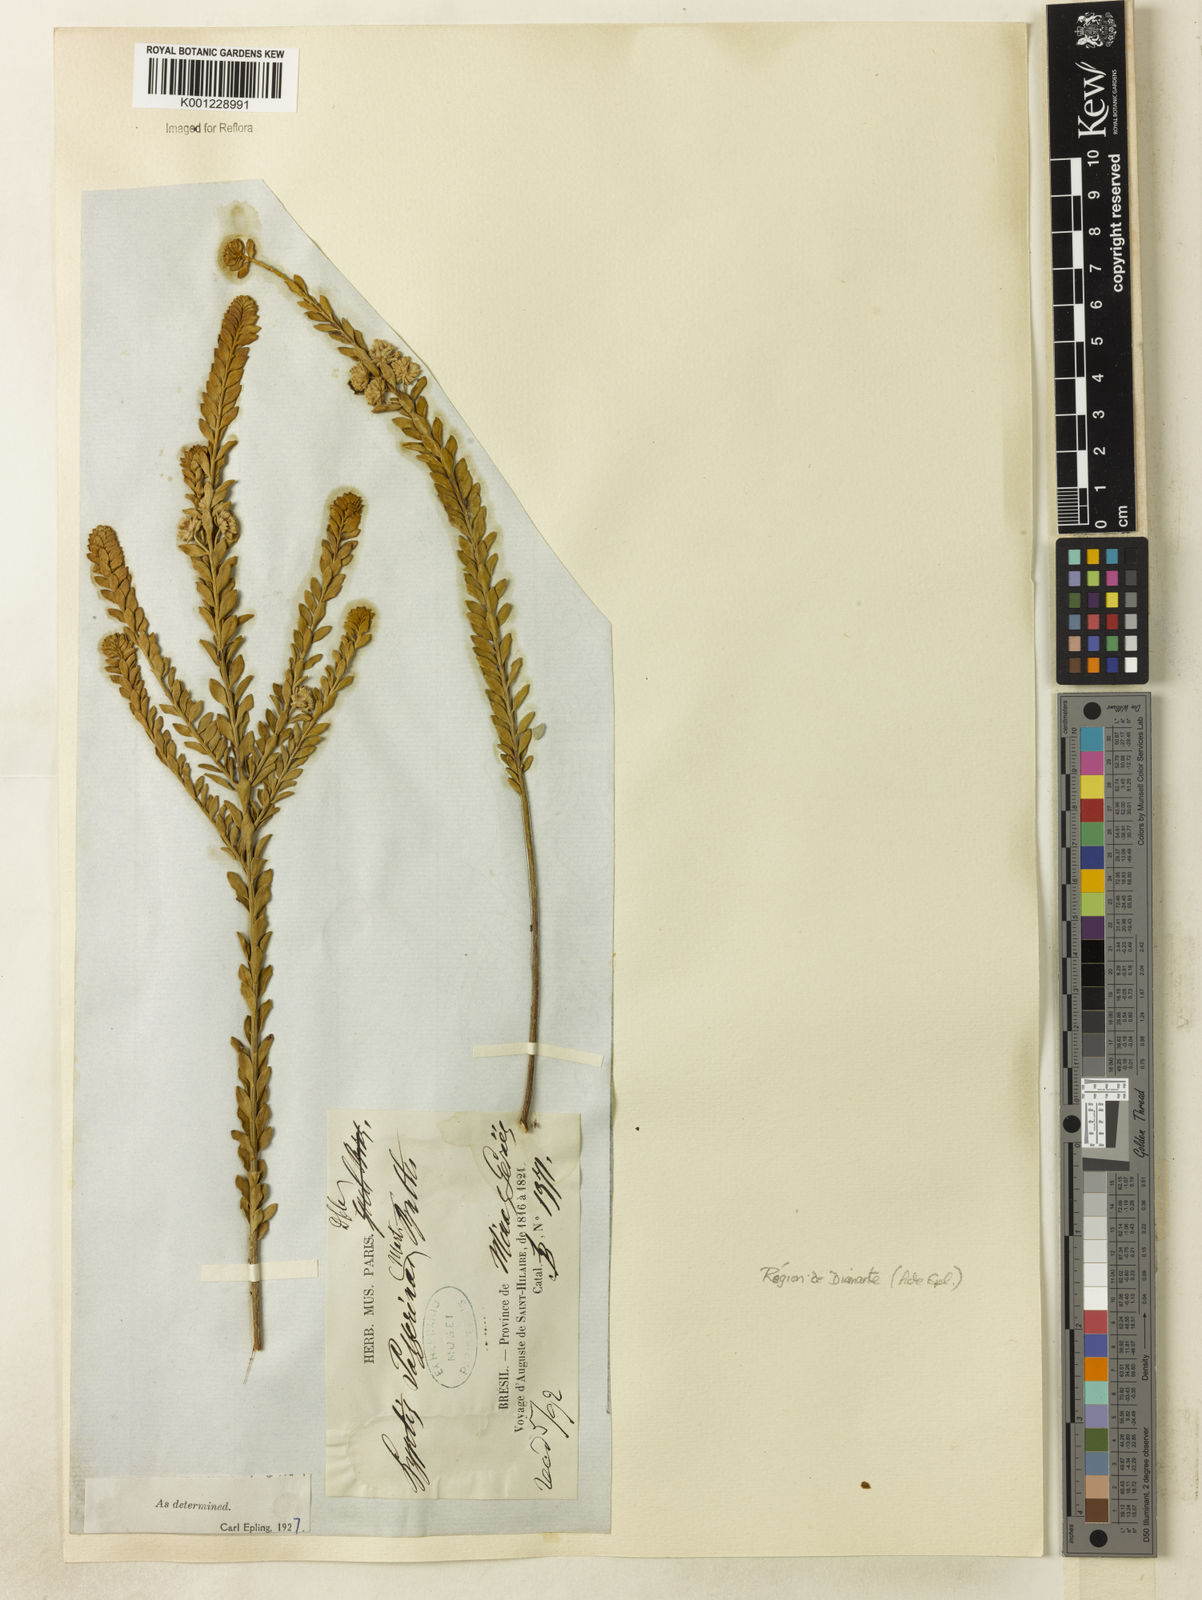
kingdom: Plantae
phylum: Tracheophyta
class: Magnoliopsida
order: Lamiales
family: Lamiaceae
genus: Hyptis
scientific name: Hyptis passerina
